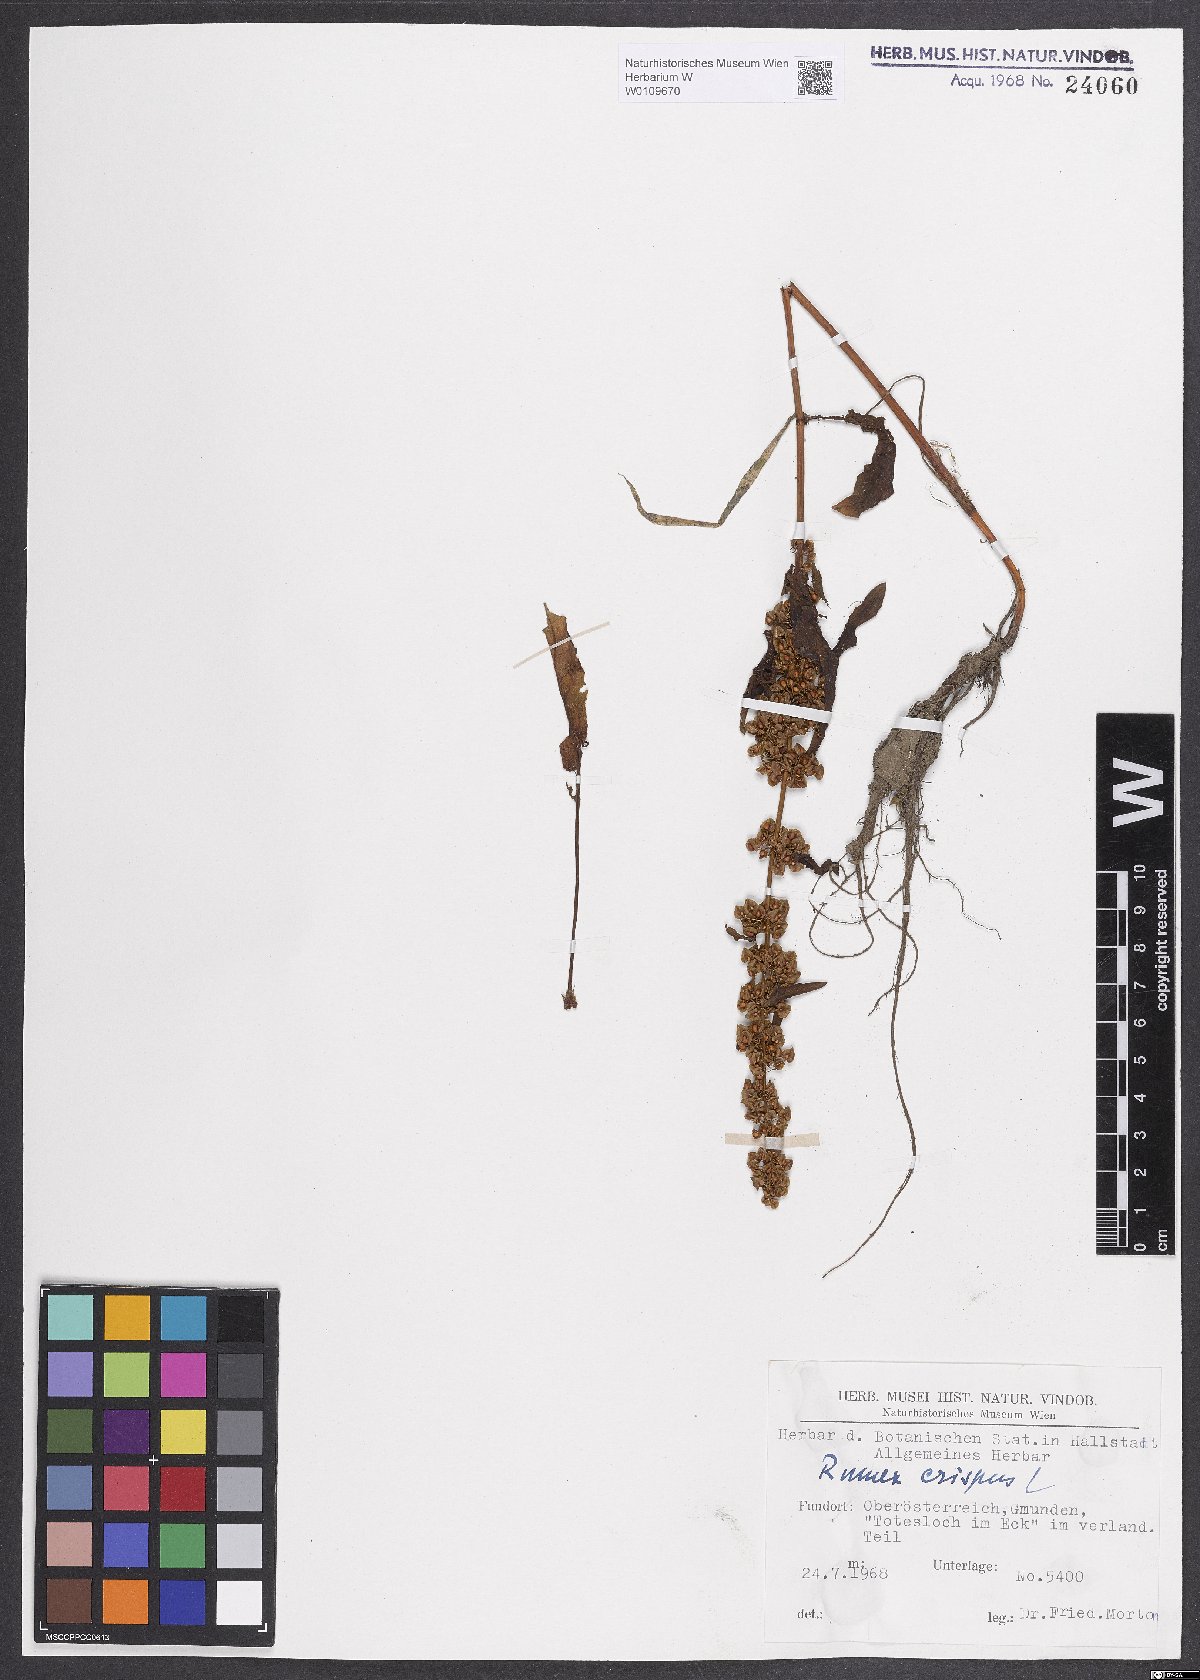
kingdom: Plantae
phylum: Tracheophyta
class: Magnoliopsida
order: Caryophyllales
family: Polygonaceae
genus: Rumex
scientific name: Rumex crispus
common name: Curled dock
